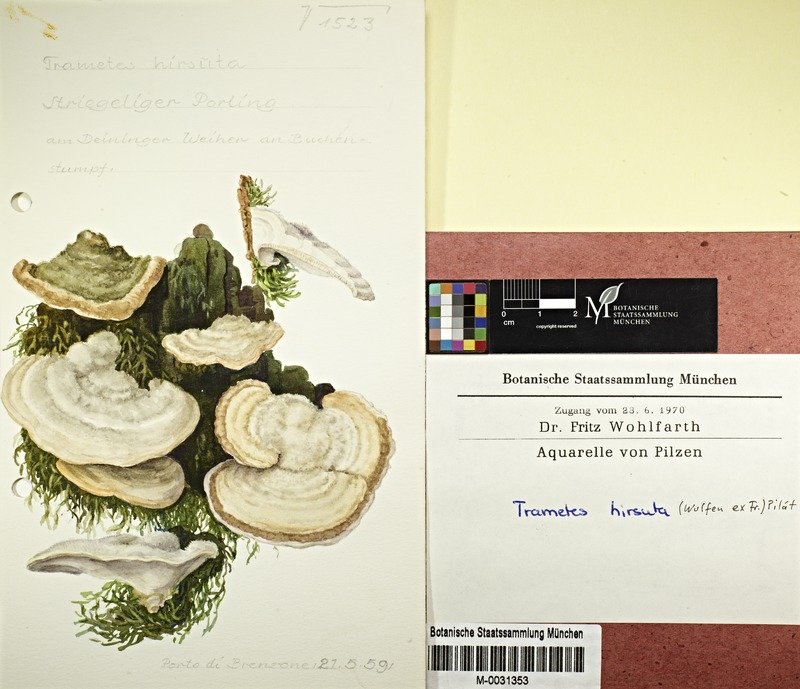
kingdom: Fungi
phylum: Basidiomycota
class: Agaricomycetes
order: Polyporales
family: Polyporaceae
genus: Trametes
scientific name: Trametes hirsuta
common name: Hairy bracket
